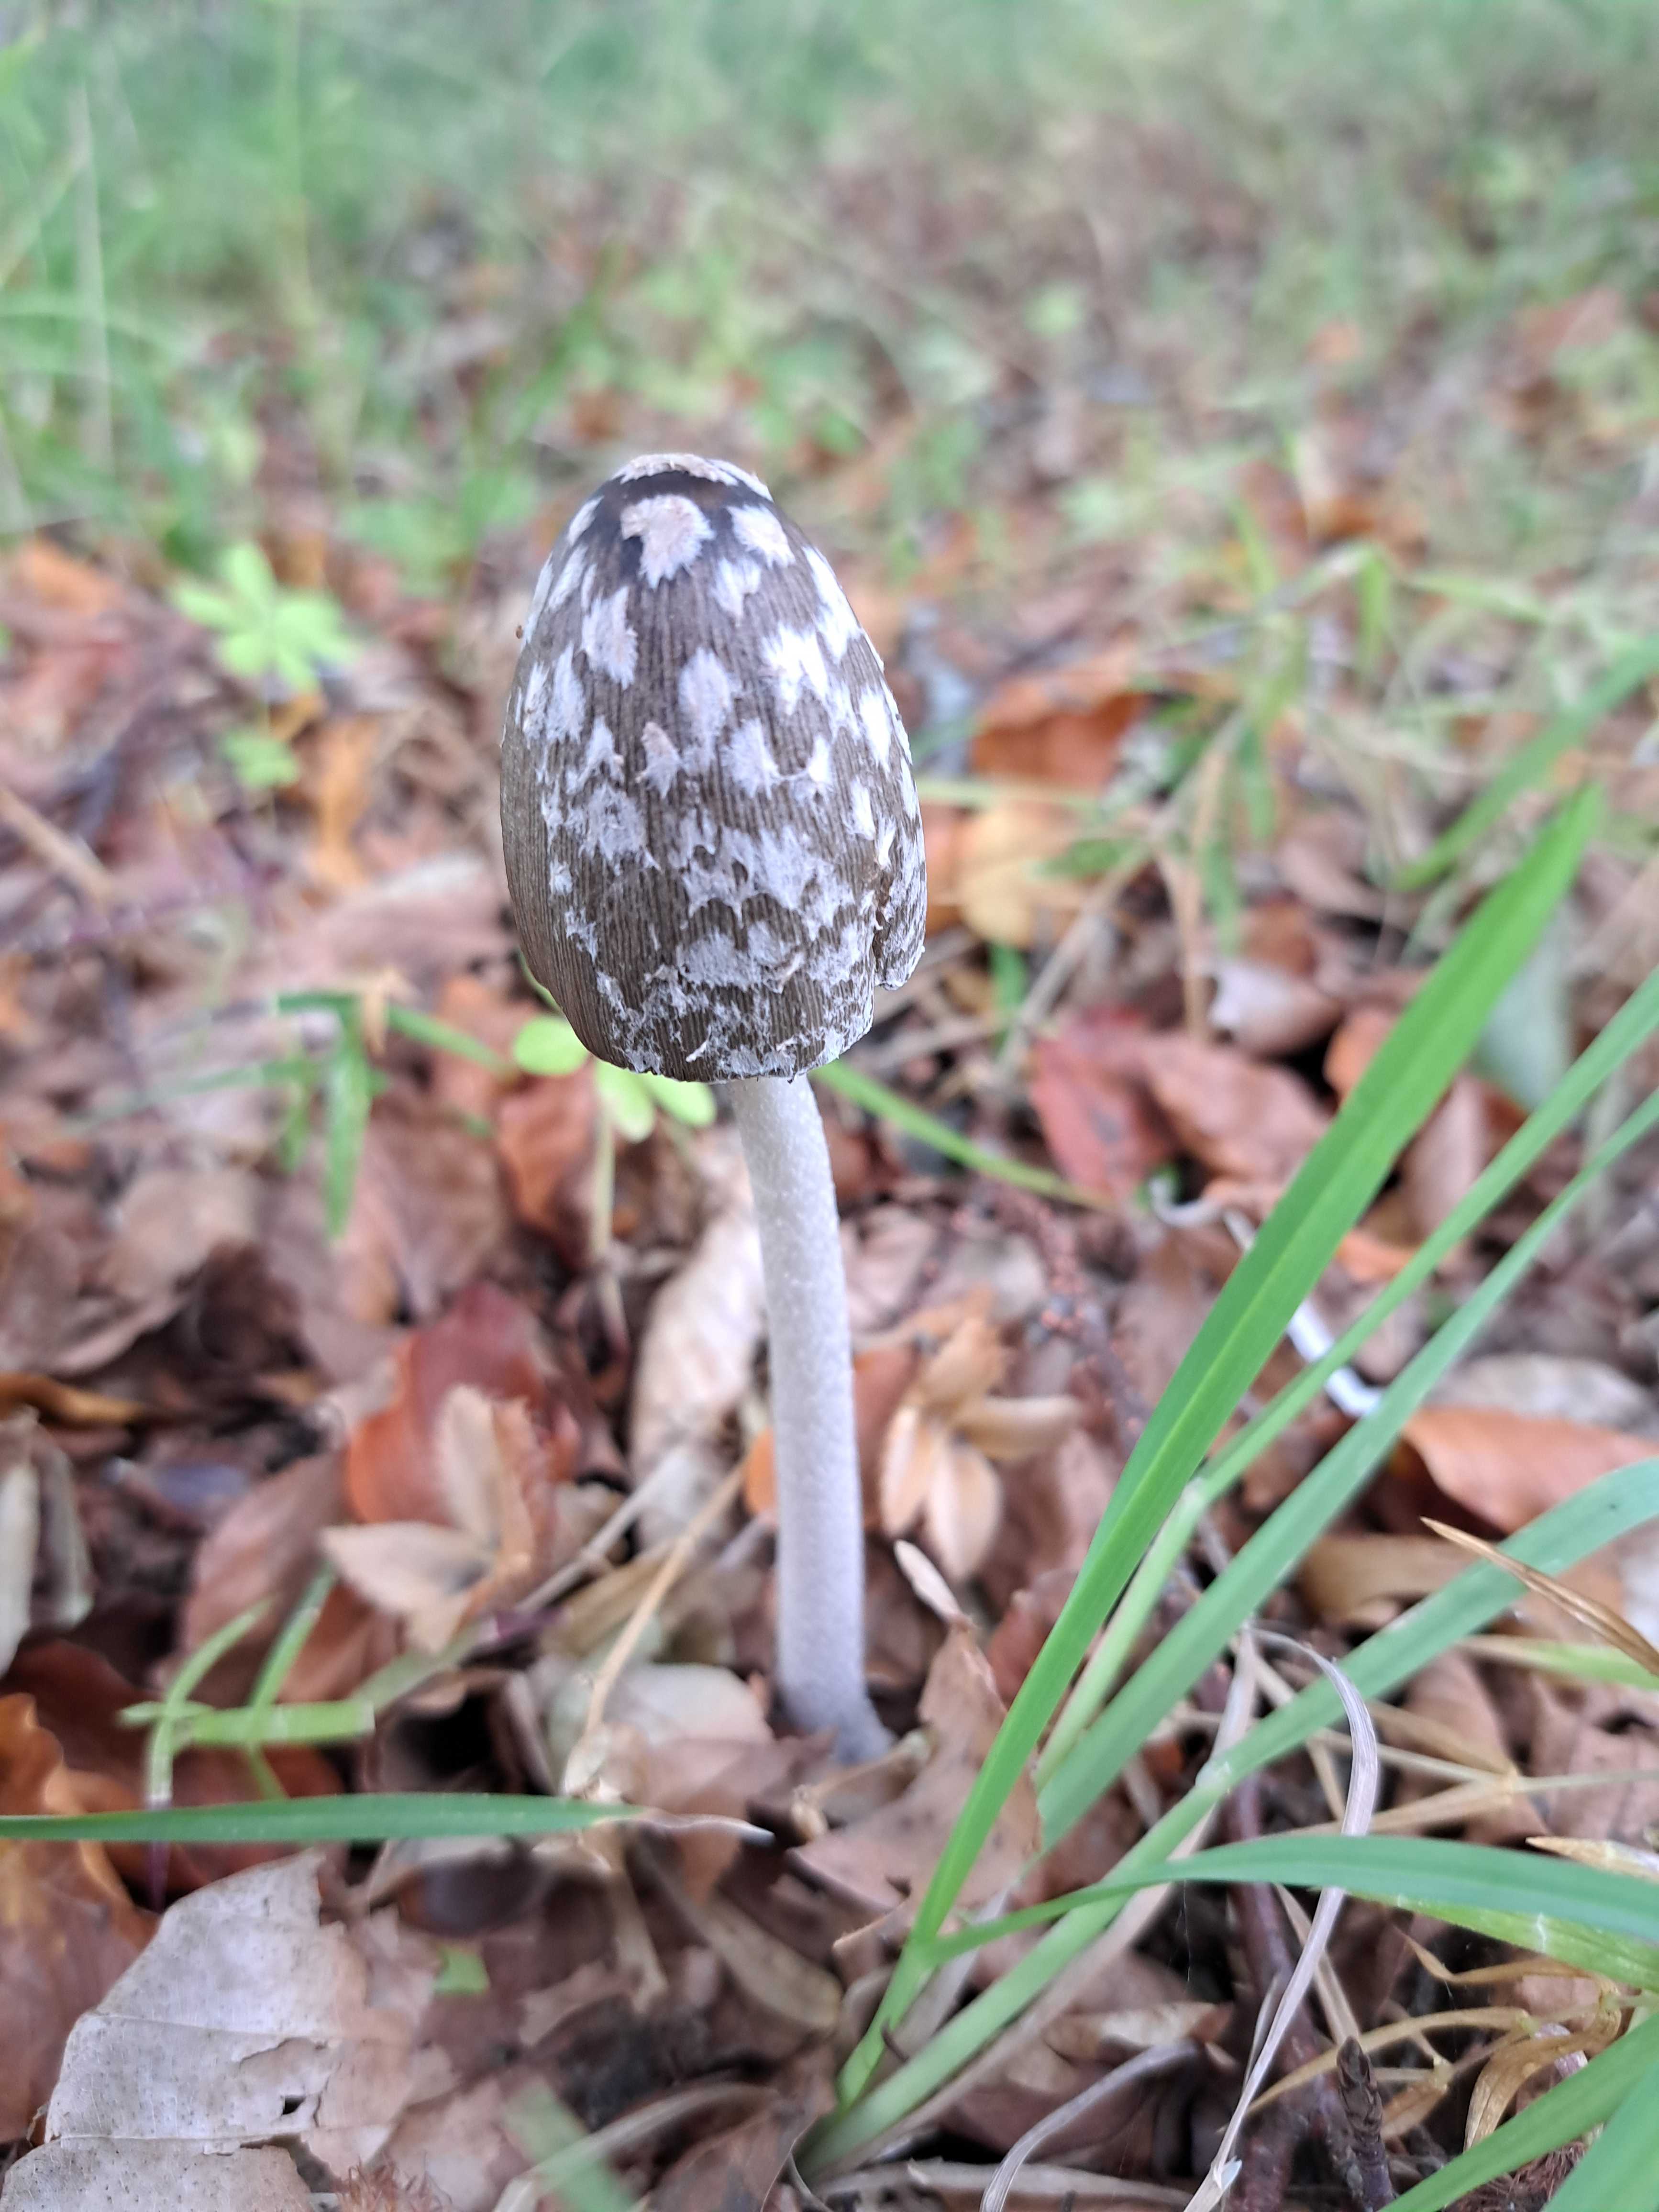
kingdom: Fungi
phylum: Basidiomycota
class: Agaricomycetes
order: Agaricales
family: Psathyrellaceae
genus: Coprinopsis
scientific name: Coprinopsis picacea
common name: skade-blækhat
